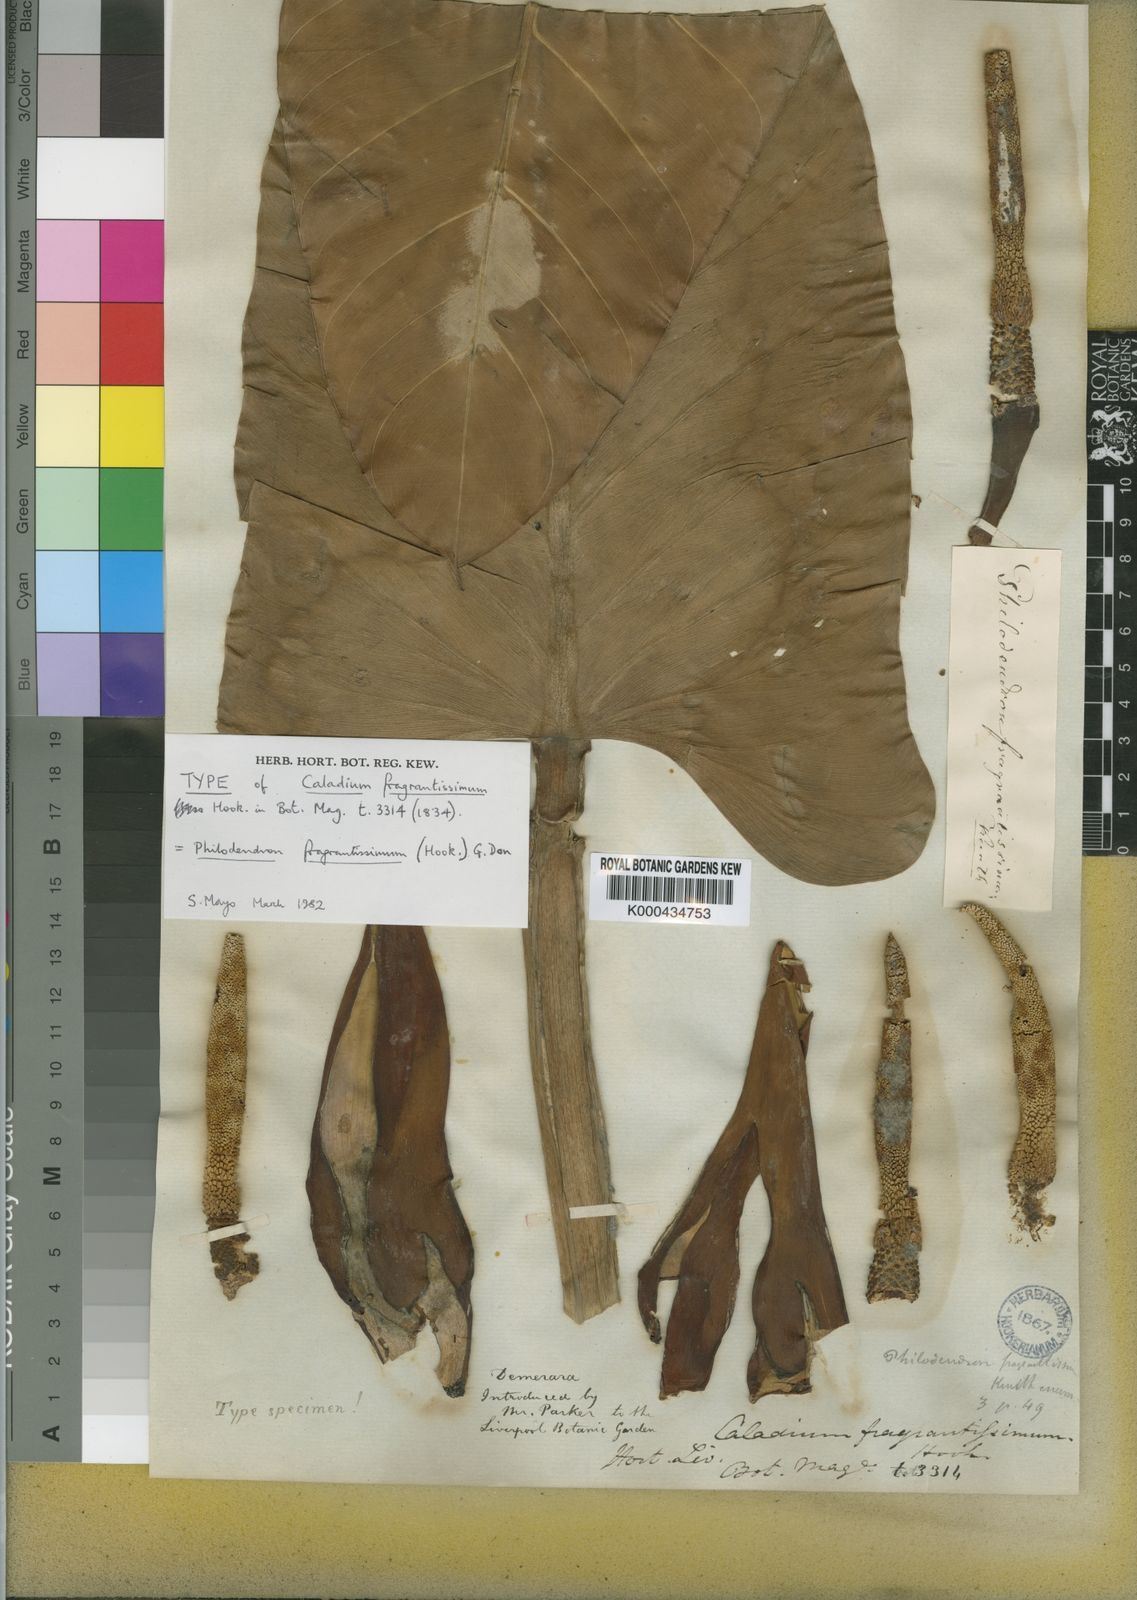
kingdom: Plantae
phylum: Tracheophyta
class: Liliopsida
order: Alismatales
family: Araceae
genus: Philodendron
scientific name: Philodendron fragrantissimum
